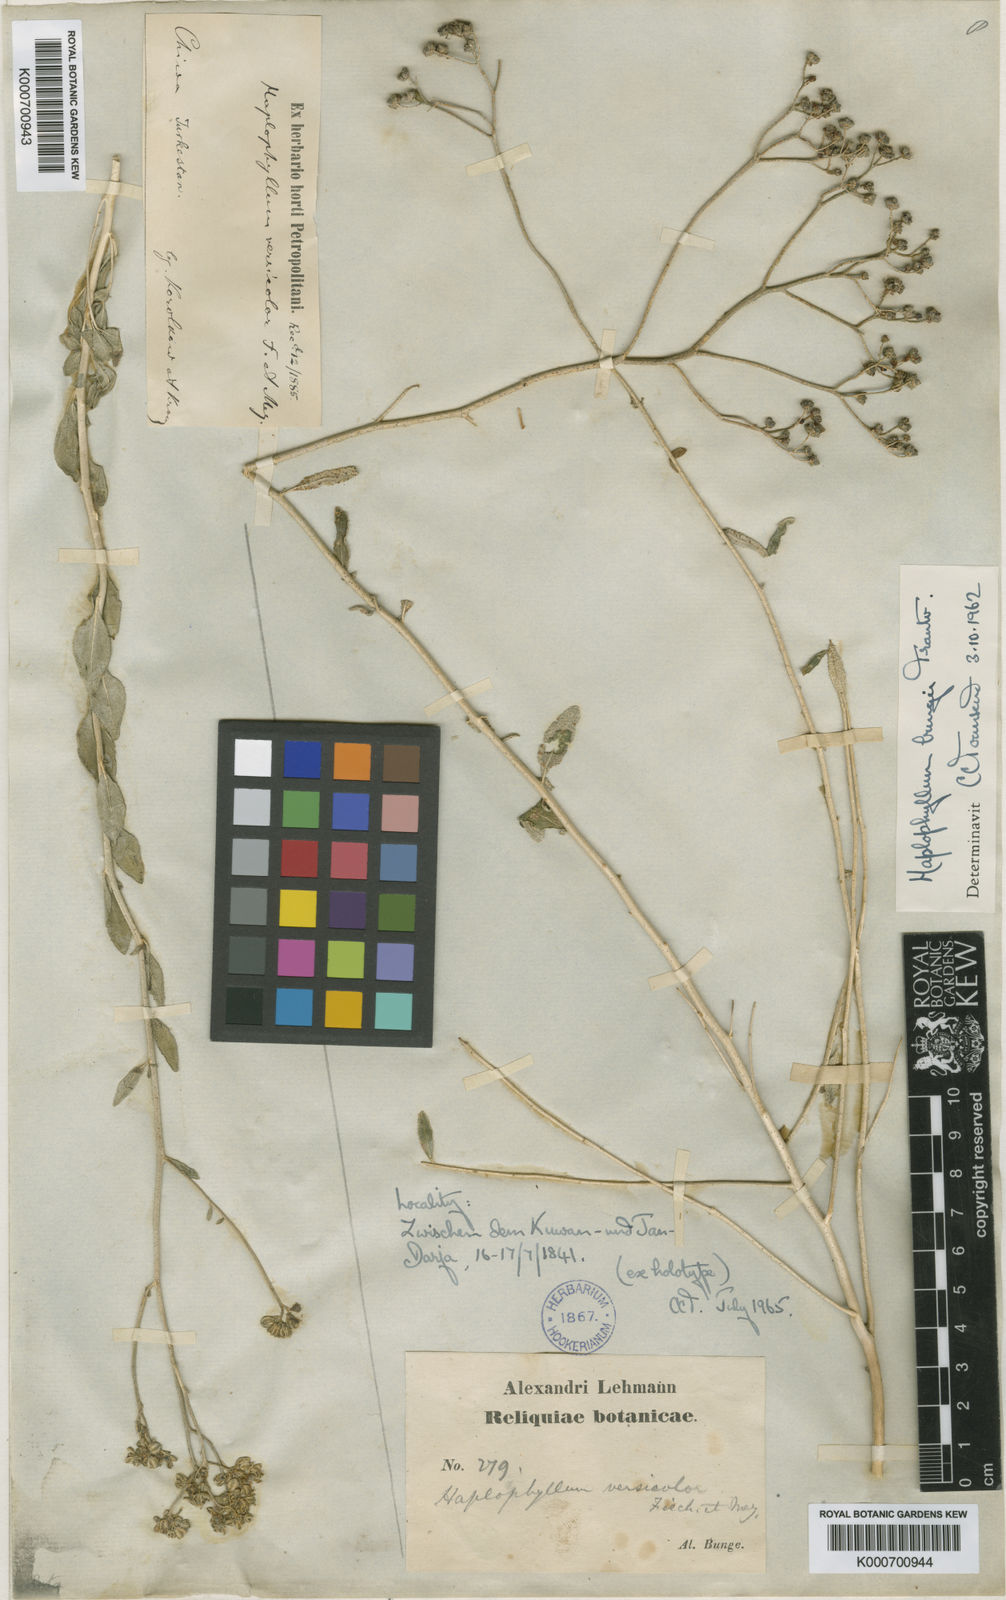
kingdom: Plantae
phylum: Tracheophyta
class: Magnoliopsida
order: Sapindales
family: Rutaceae
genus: Haplophyllum
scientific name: Haplophyllum bungei
